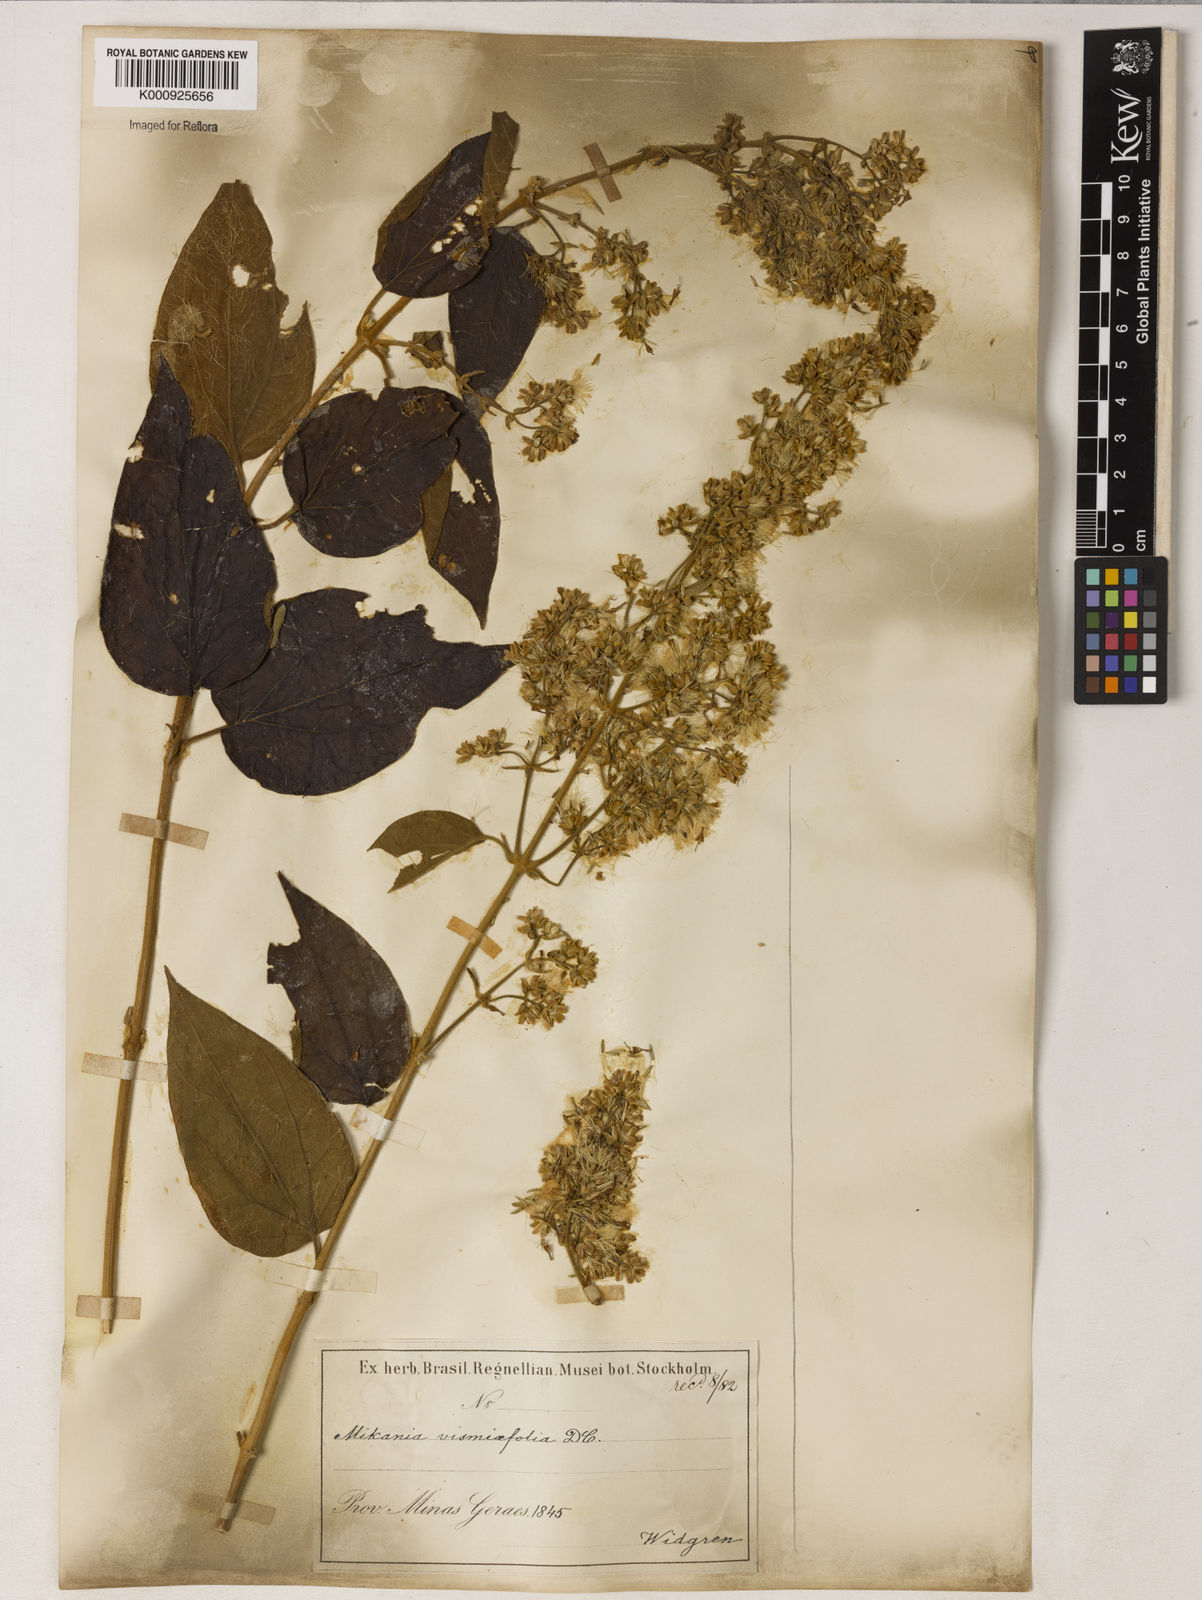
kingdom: Plantae
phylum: Tracheophyta
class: Magnoliopsida
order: Asterales
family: Asteraceae
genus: Mikania
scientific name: Mikania
